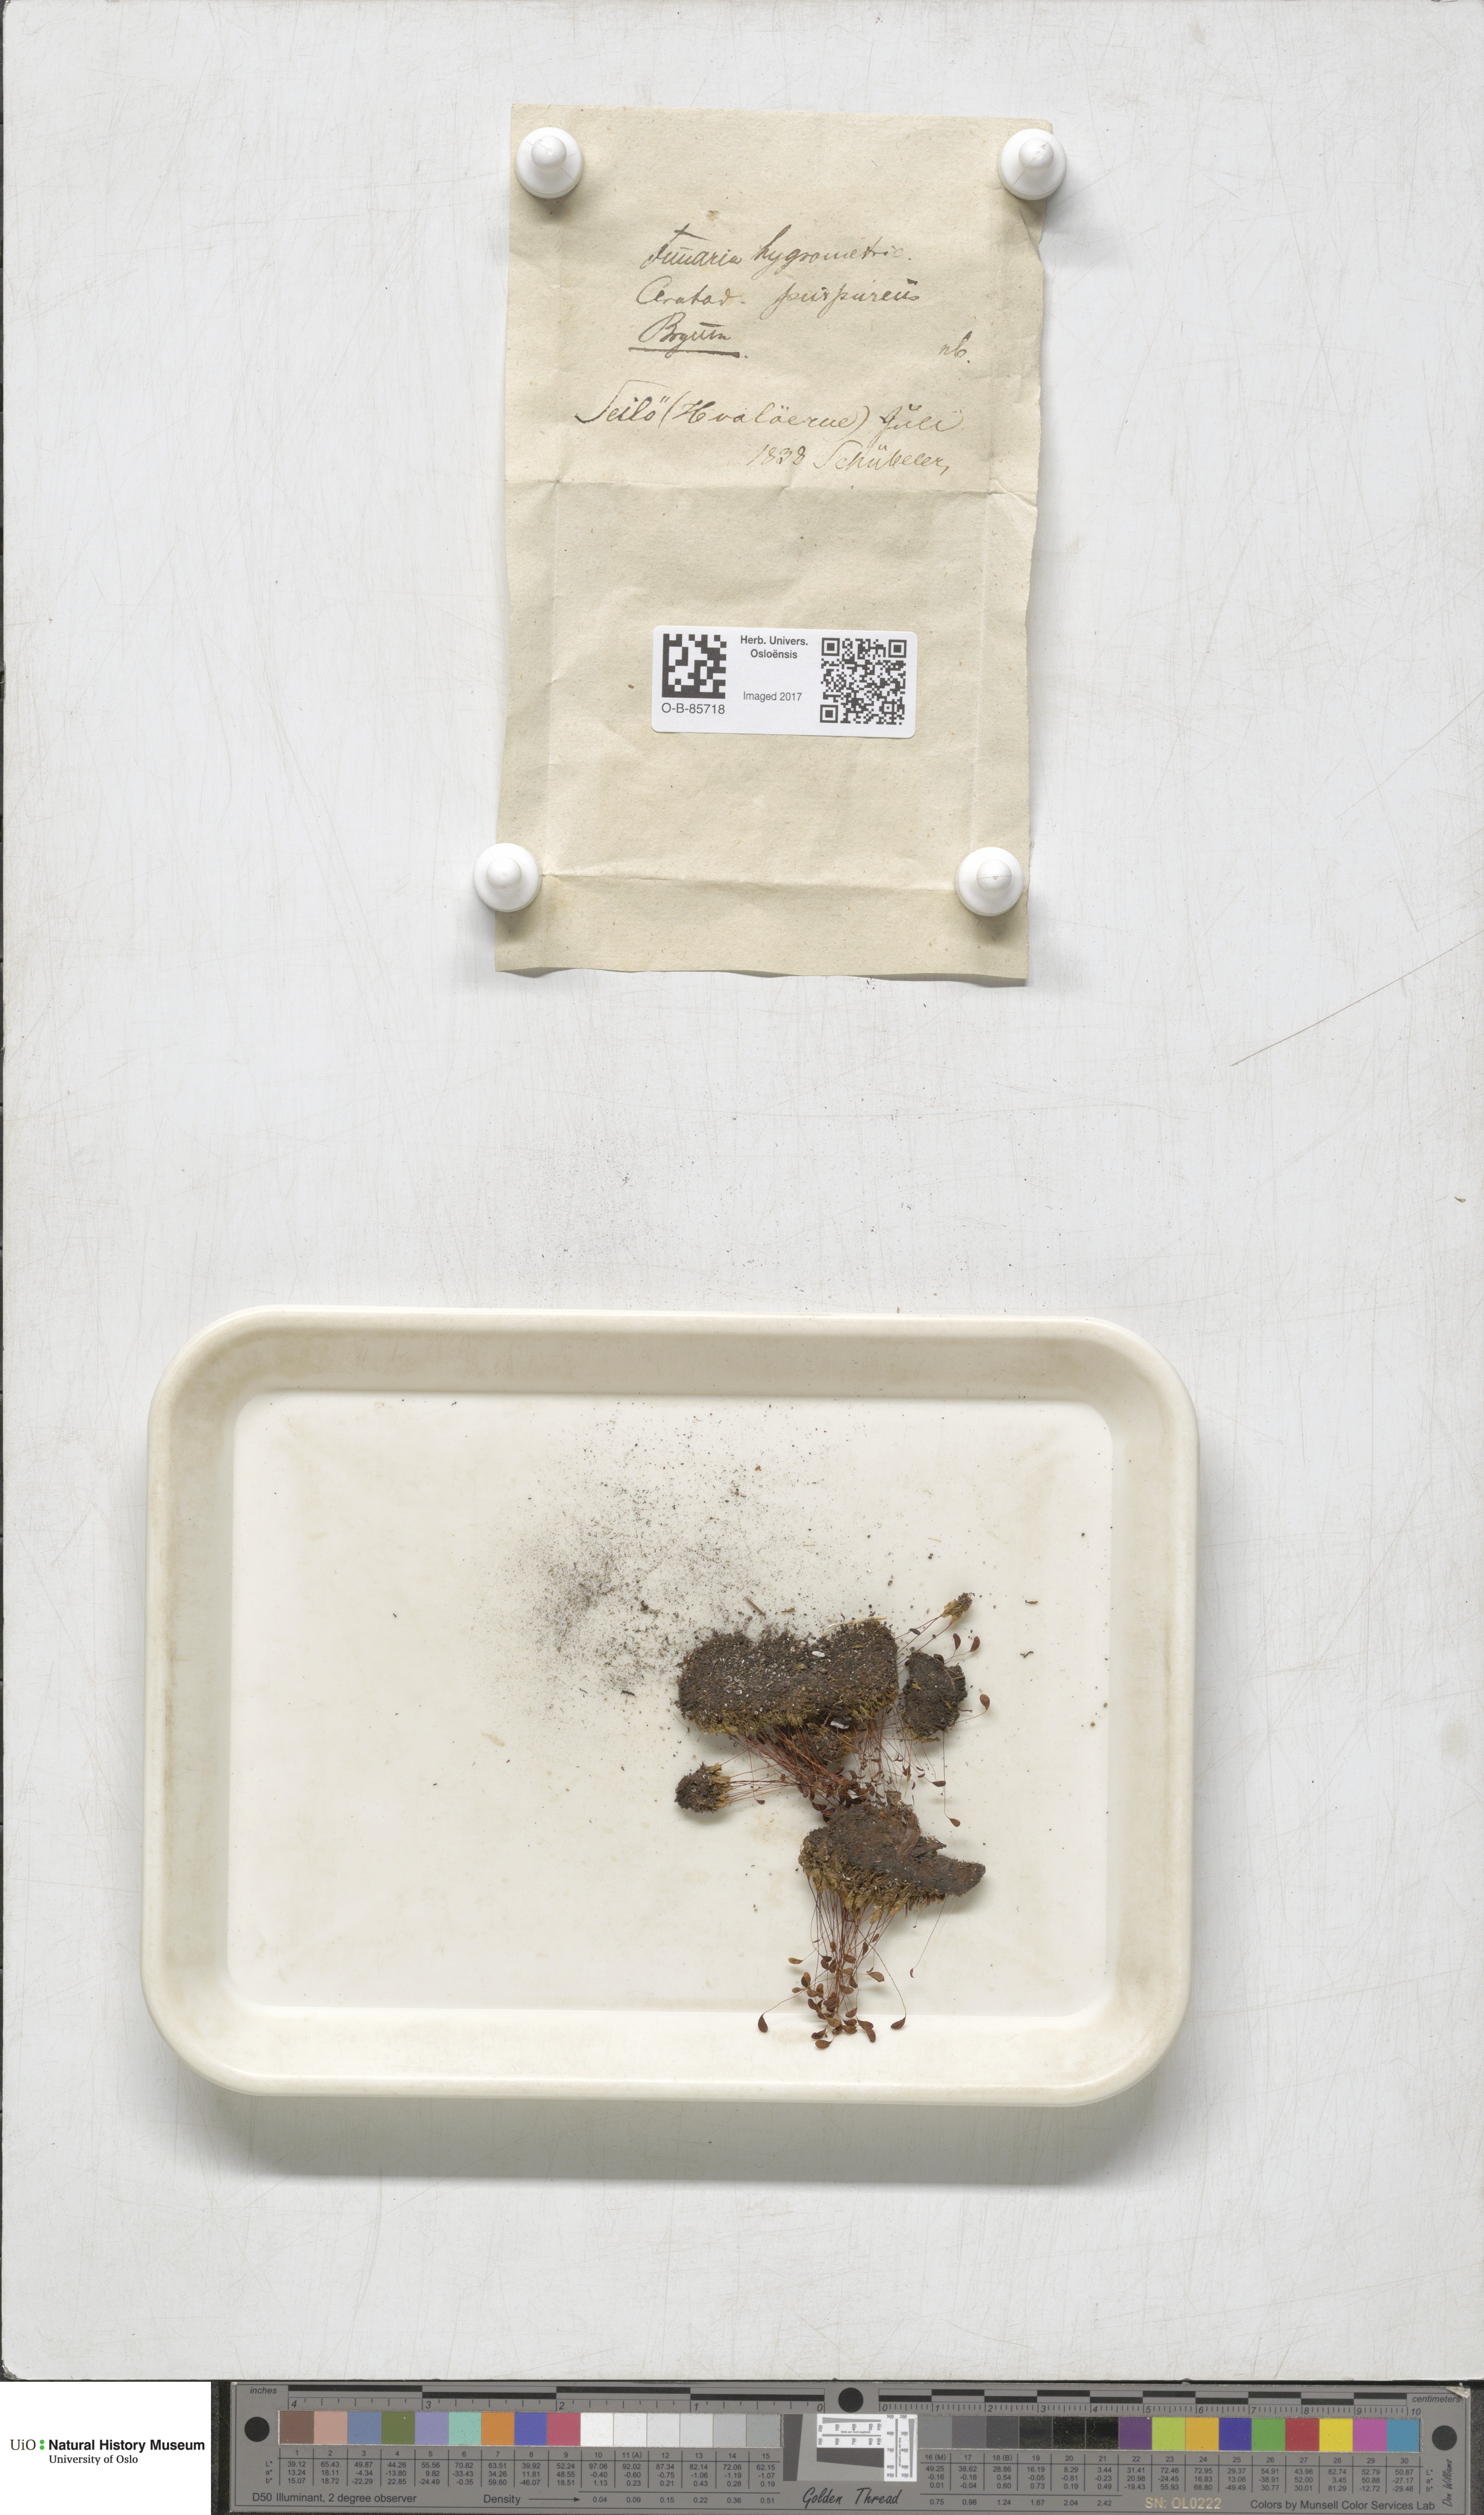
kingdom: Plantae
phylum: Bryophyta
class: Bryopsida
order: Funariales
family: Funariaceae
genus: Funaria
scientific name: Funaria hygrometrica
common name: Common cord moss
